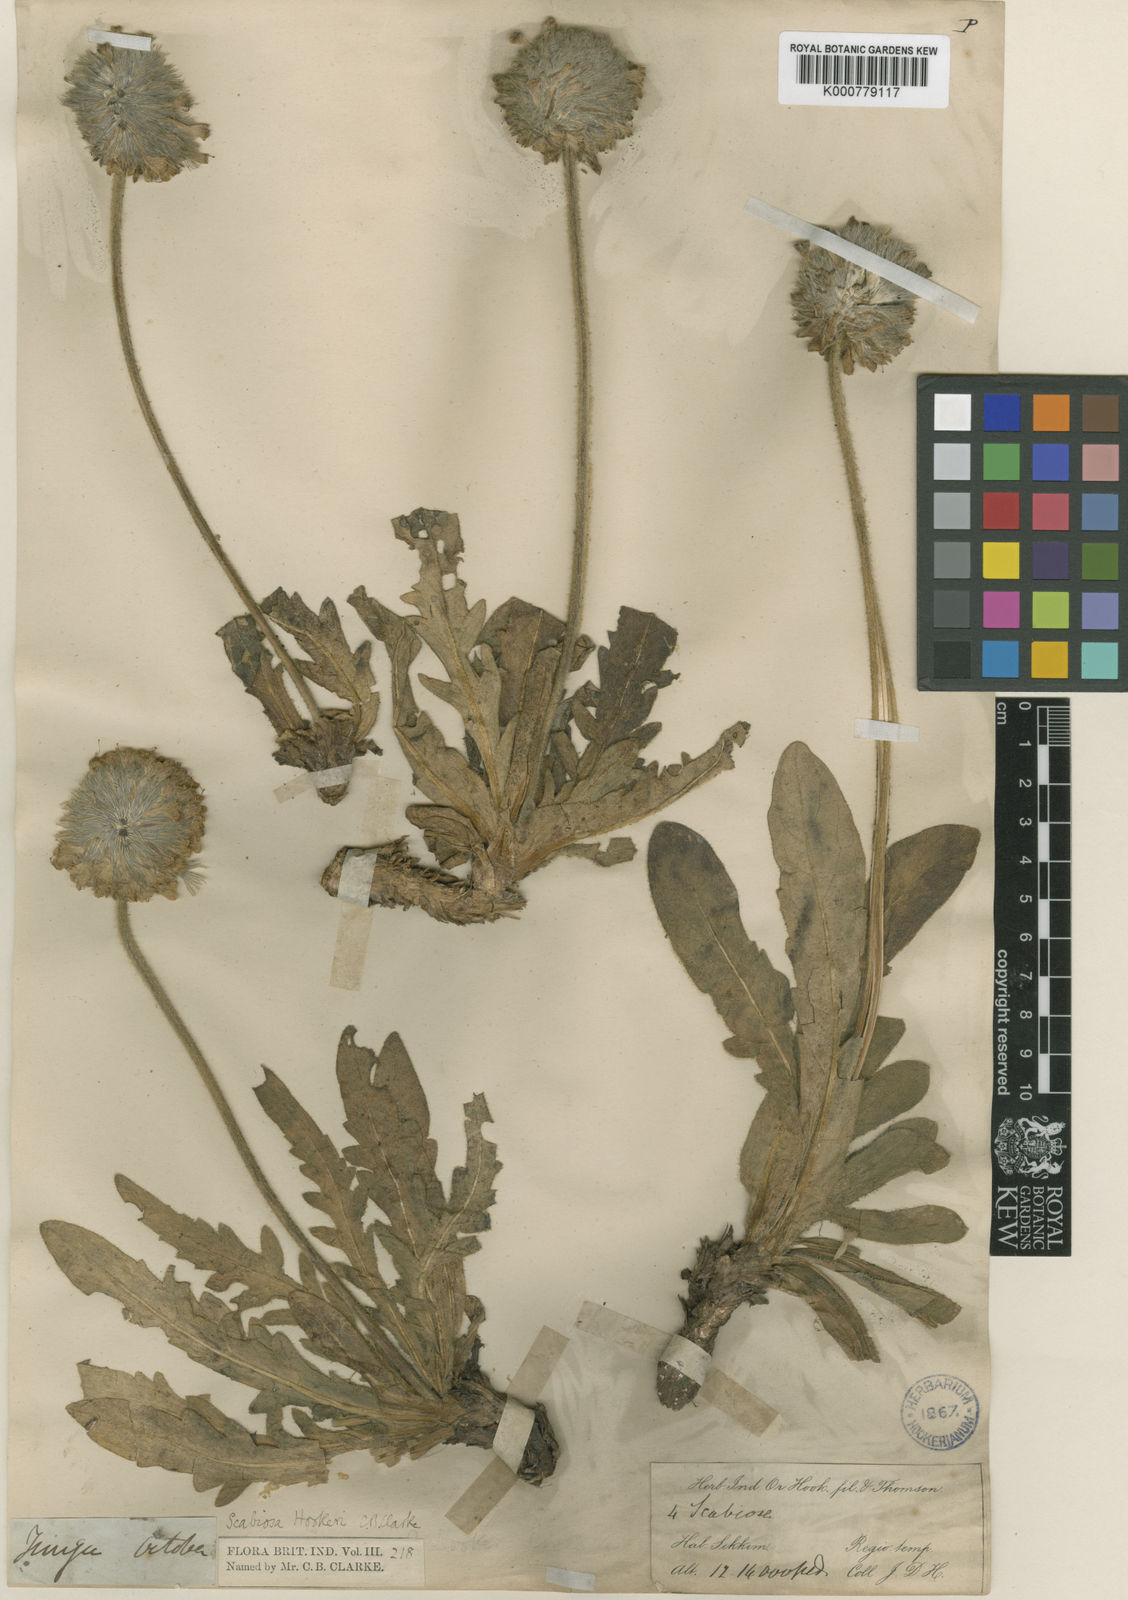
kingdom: Plantae
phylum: Tracheophyta
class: Magnoliopsida
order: Dipsacales
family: Caprifoliaceae
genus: Bassecoia
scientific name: Bassecoia hookeri
